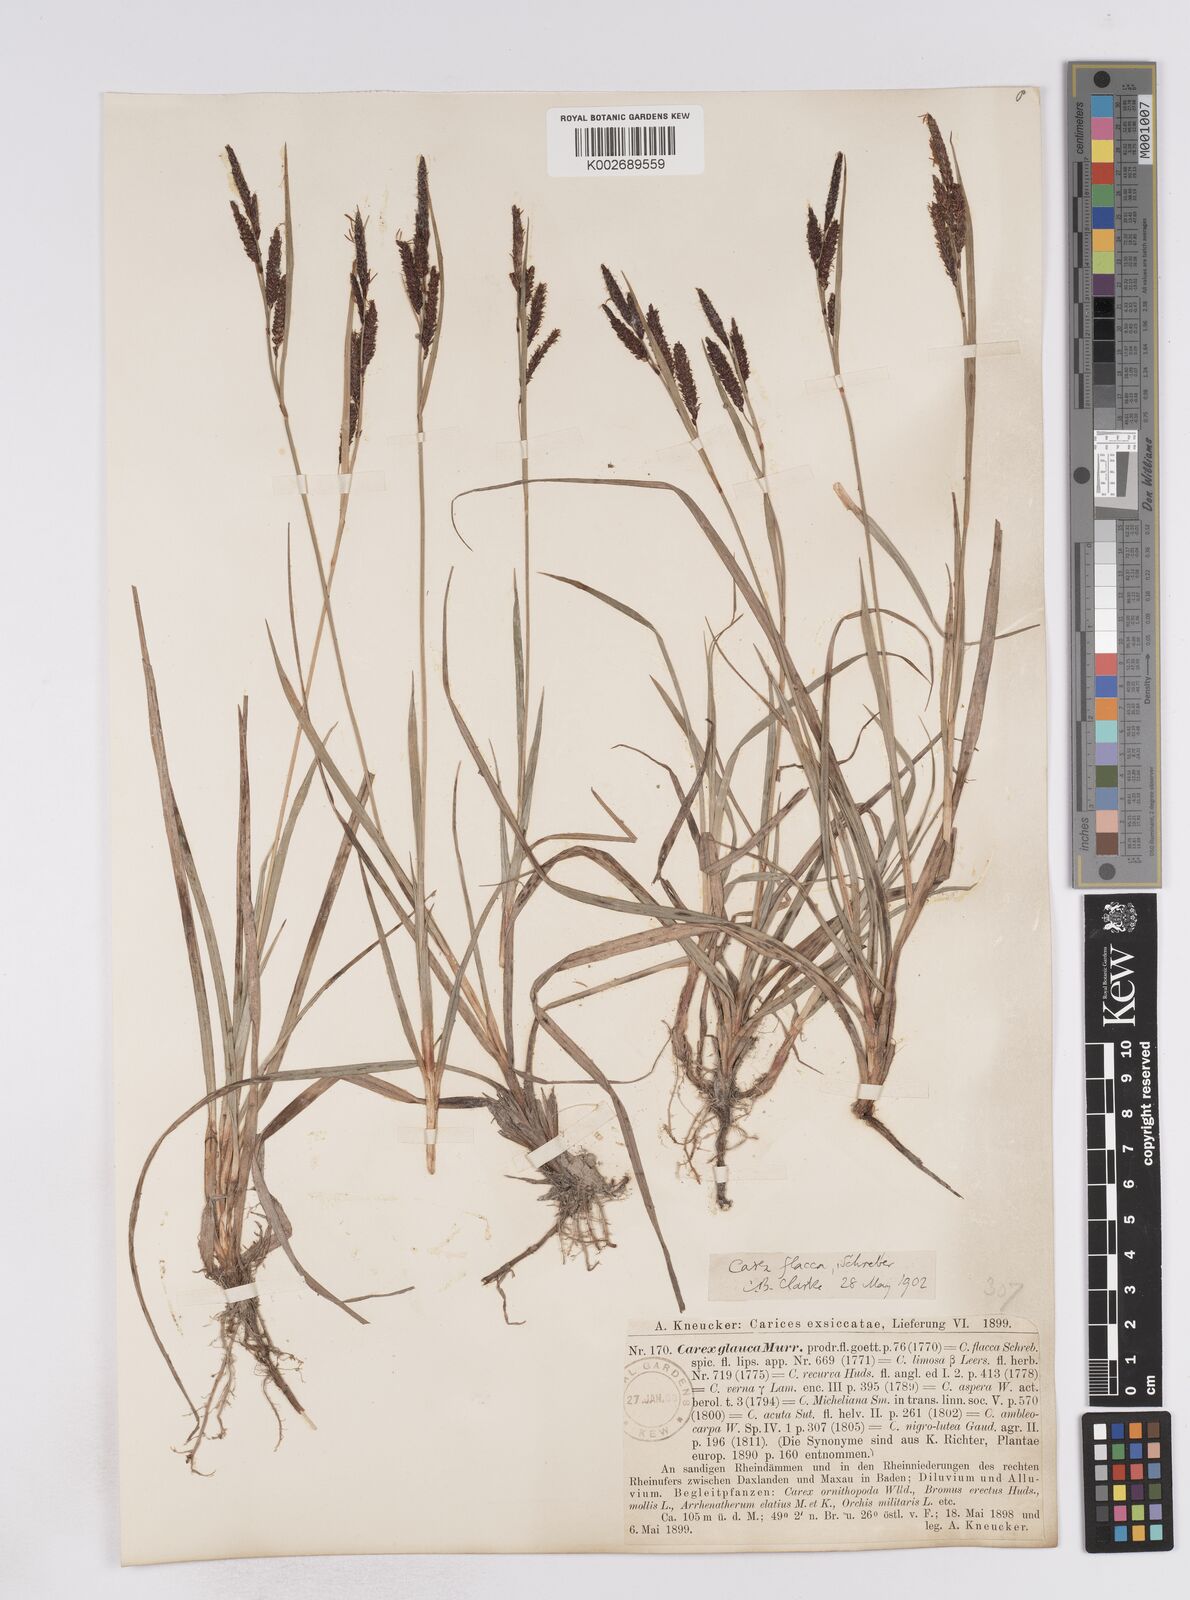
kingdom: Plantae
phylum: Tracheophyta
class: Liliopsida
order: Poales
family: Cyperaceae
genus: Carex
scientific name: Carex flacca
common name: Glaucous sedge
